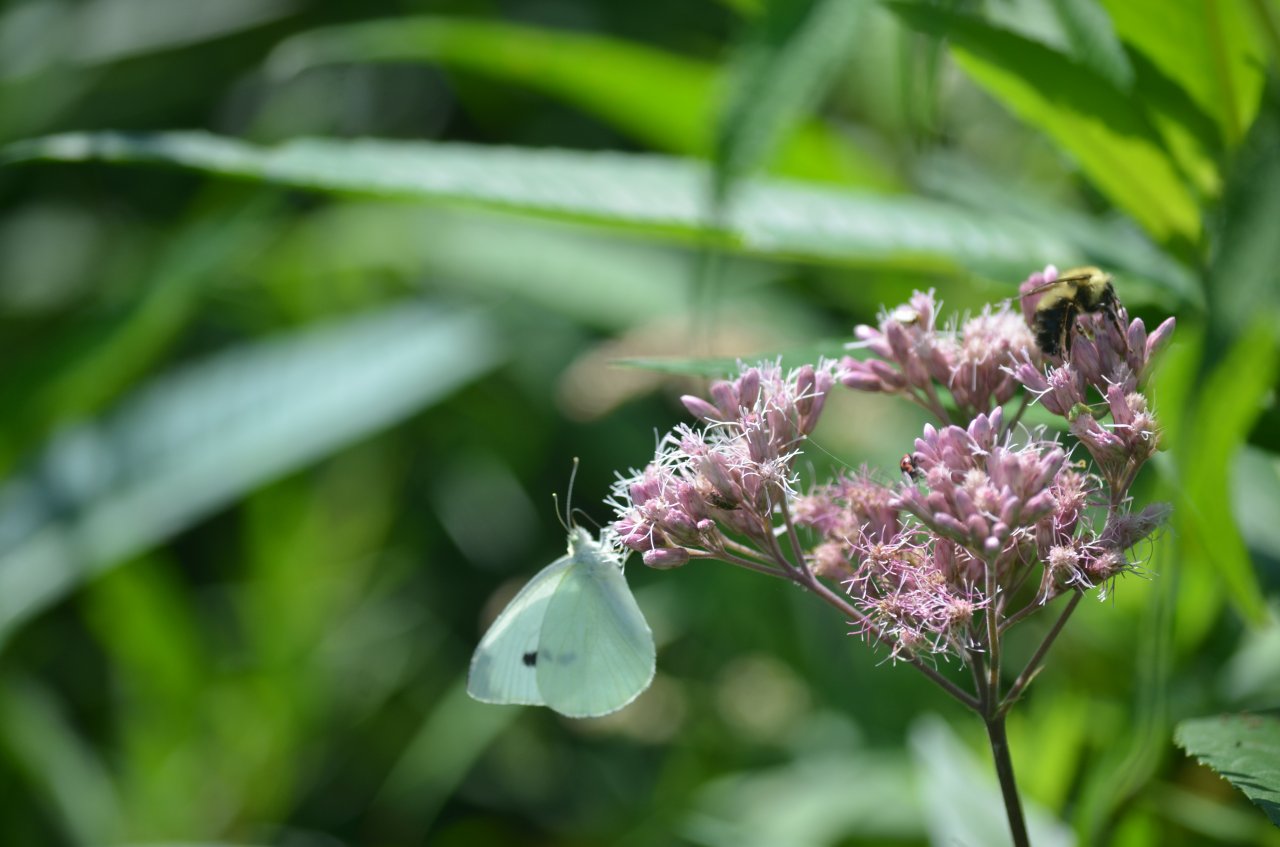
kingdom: Animalia
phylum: Arthropoda
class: Insecta
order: Lepidoptera
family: Pieridae
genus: Pieris
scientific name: Pieris rapae
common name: Cabbage White
